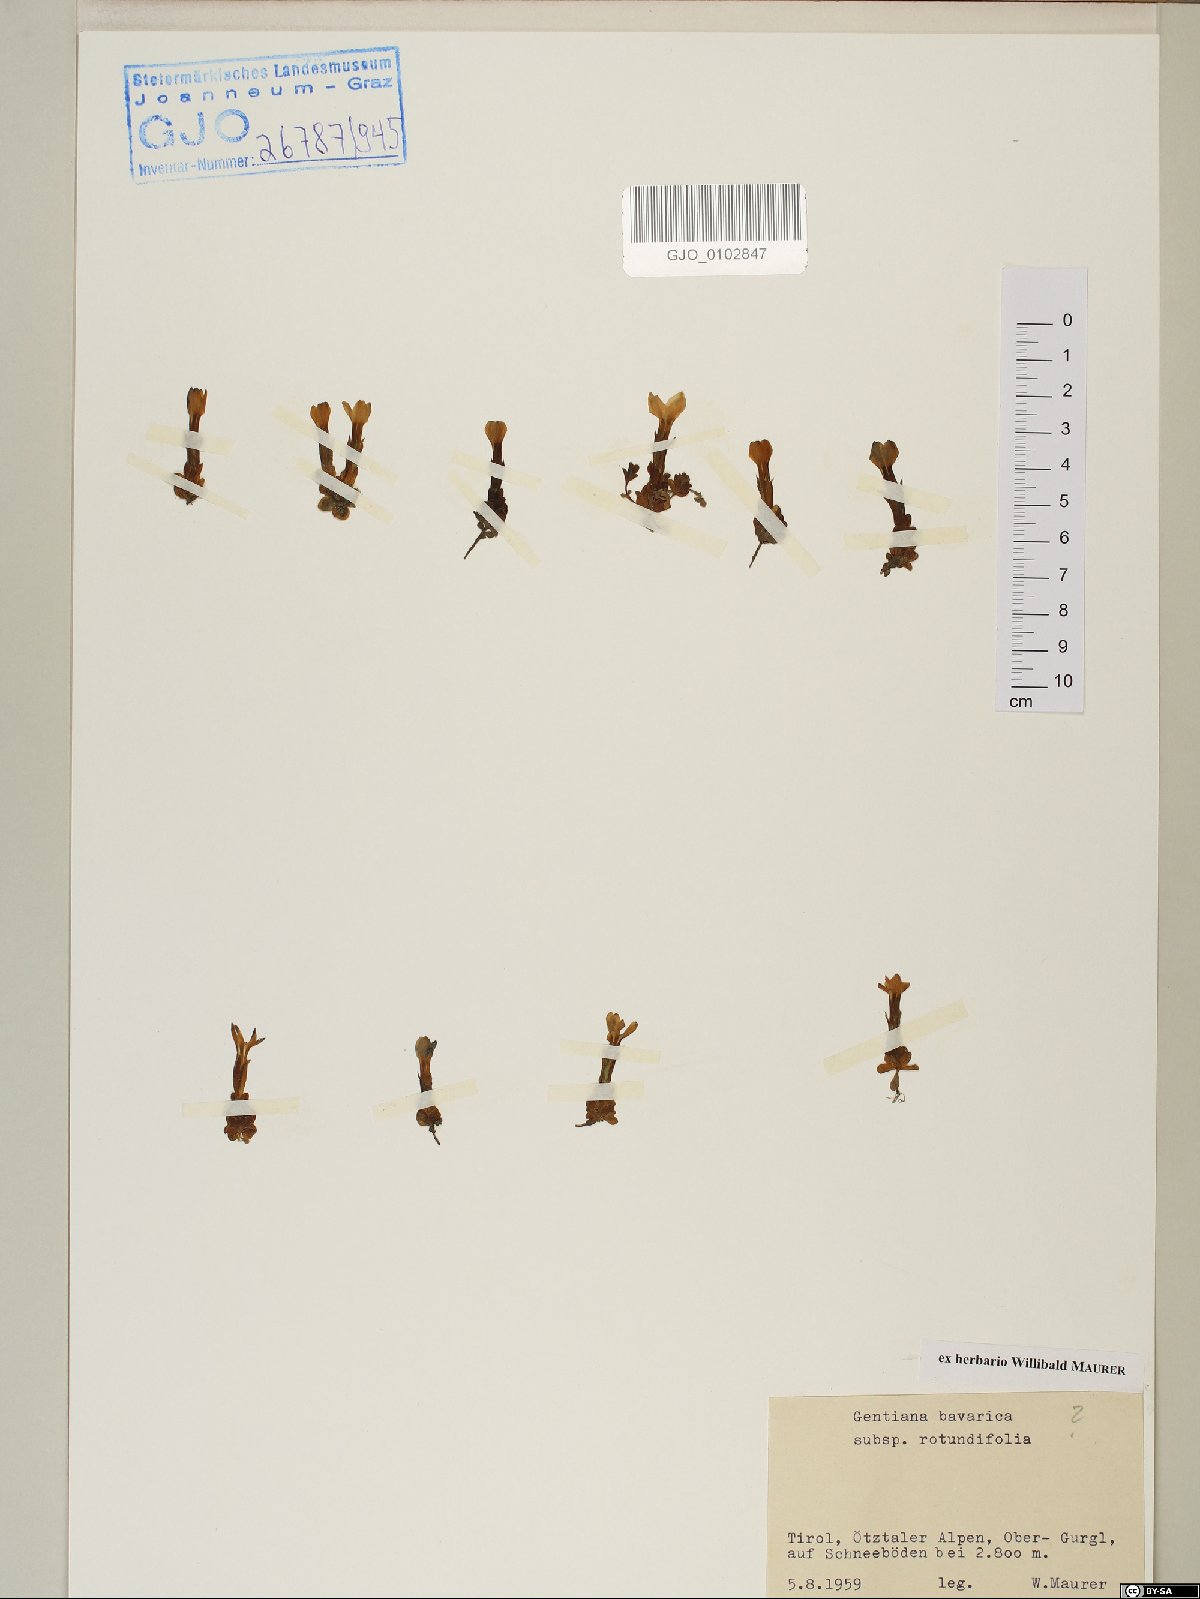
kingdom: Plantae
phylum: Tracheophyta
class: Magnoliopsida
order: Gentianales
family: Gentianaceae
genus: Gentiana
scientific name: Gentiana bavarica
